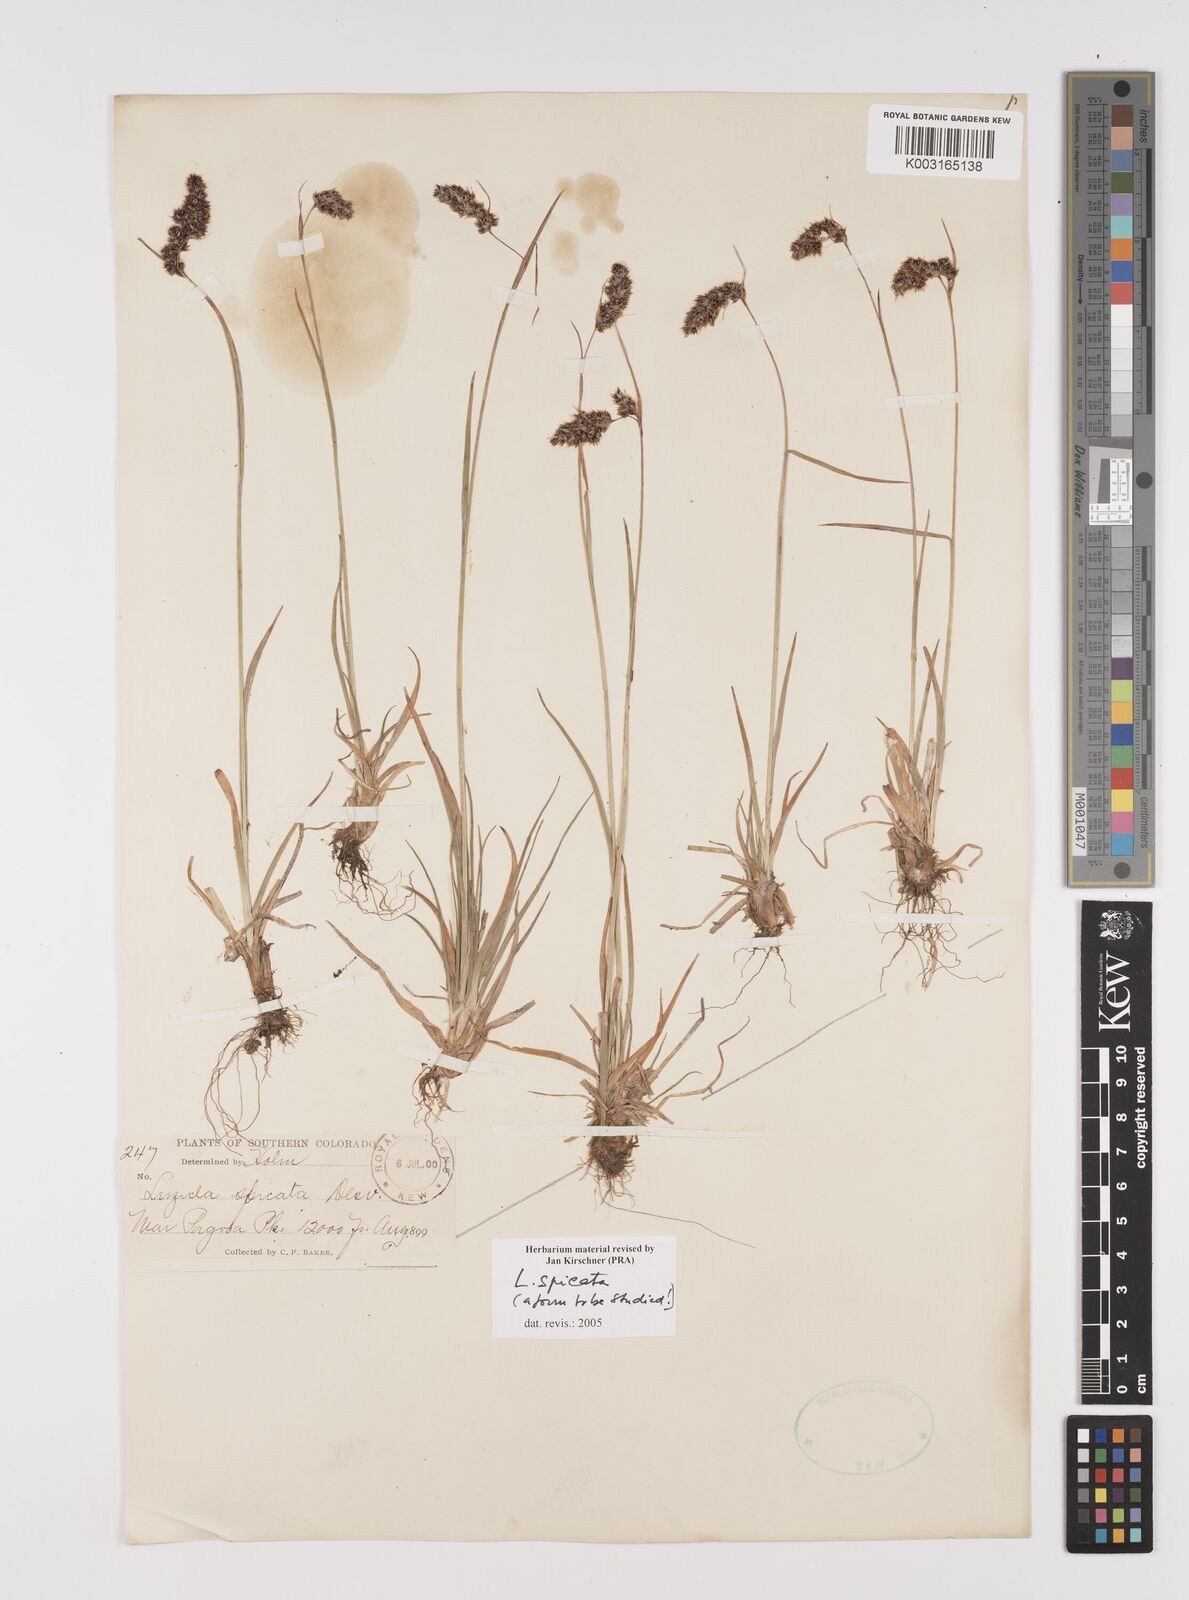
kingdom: Plantae
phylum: Tracheophyta
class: Liliopsida
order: Poales
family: Juncaceae
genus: Luzula
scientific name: Luzula spicata
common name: Spiked wood-rush
